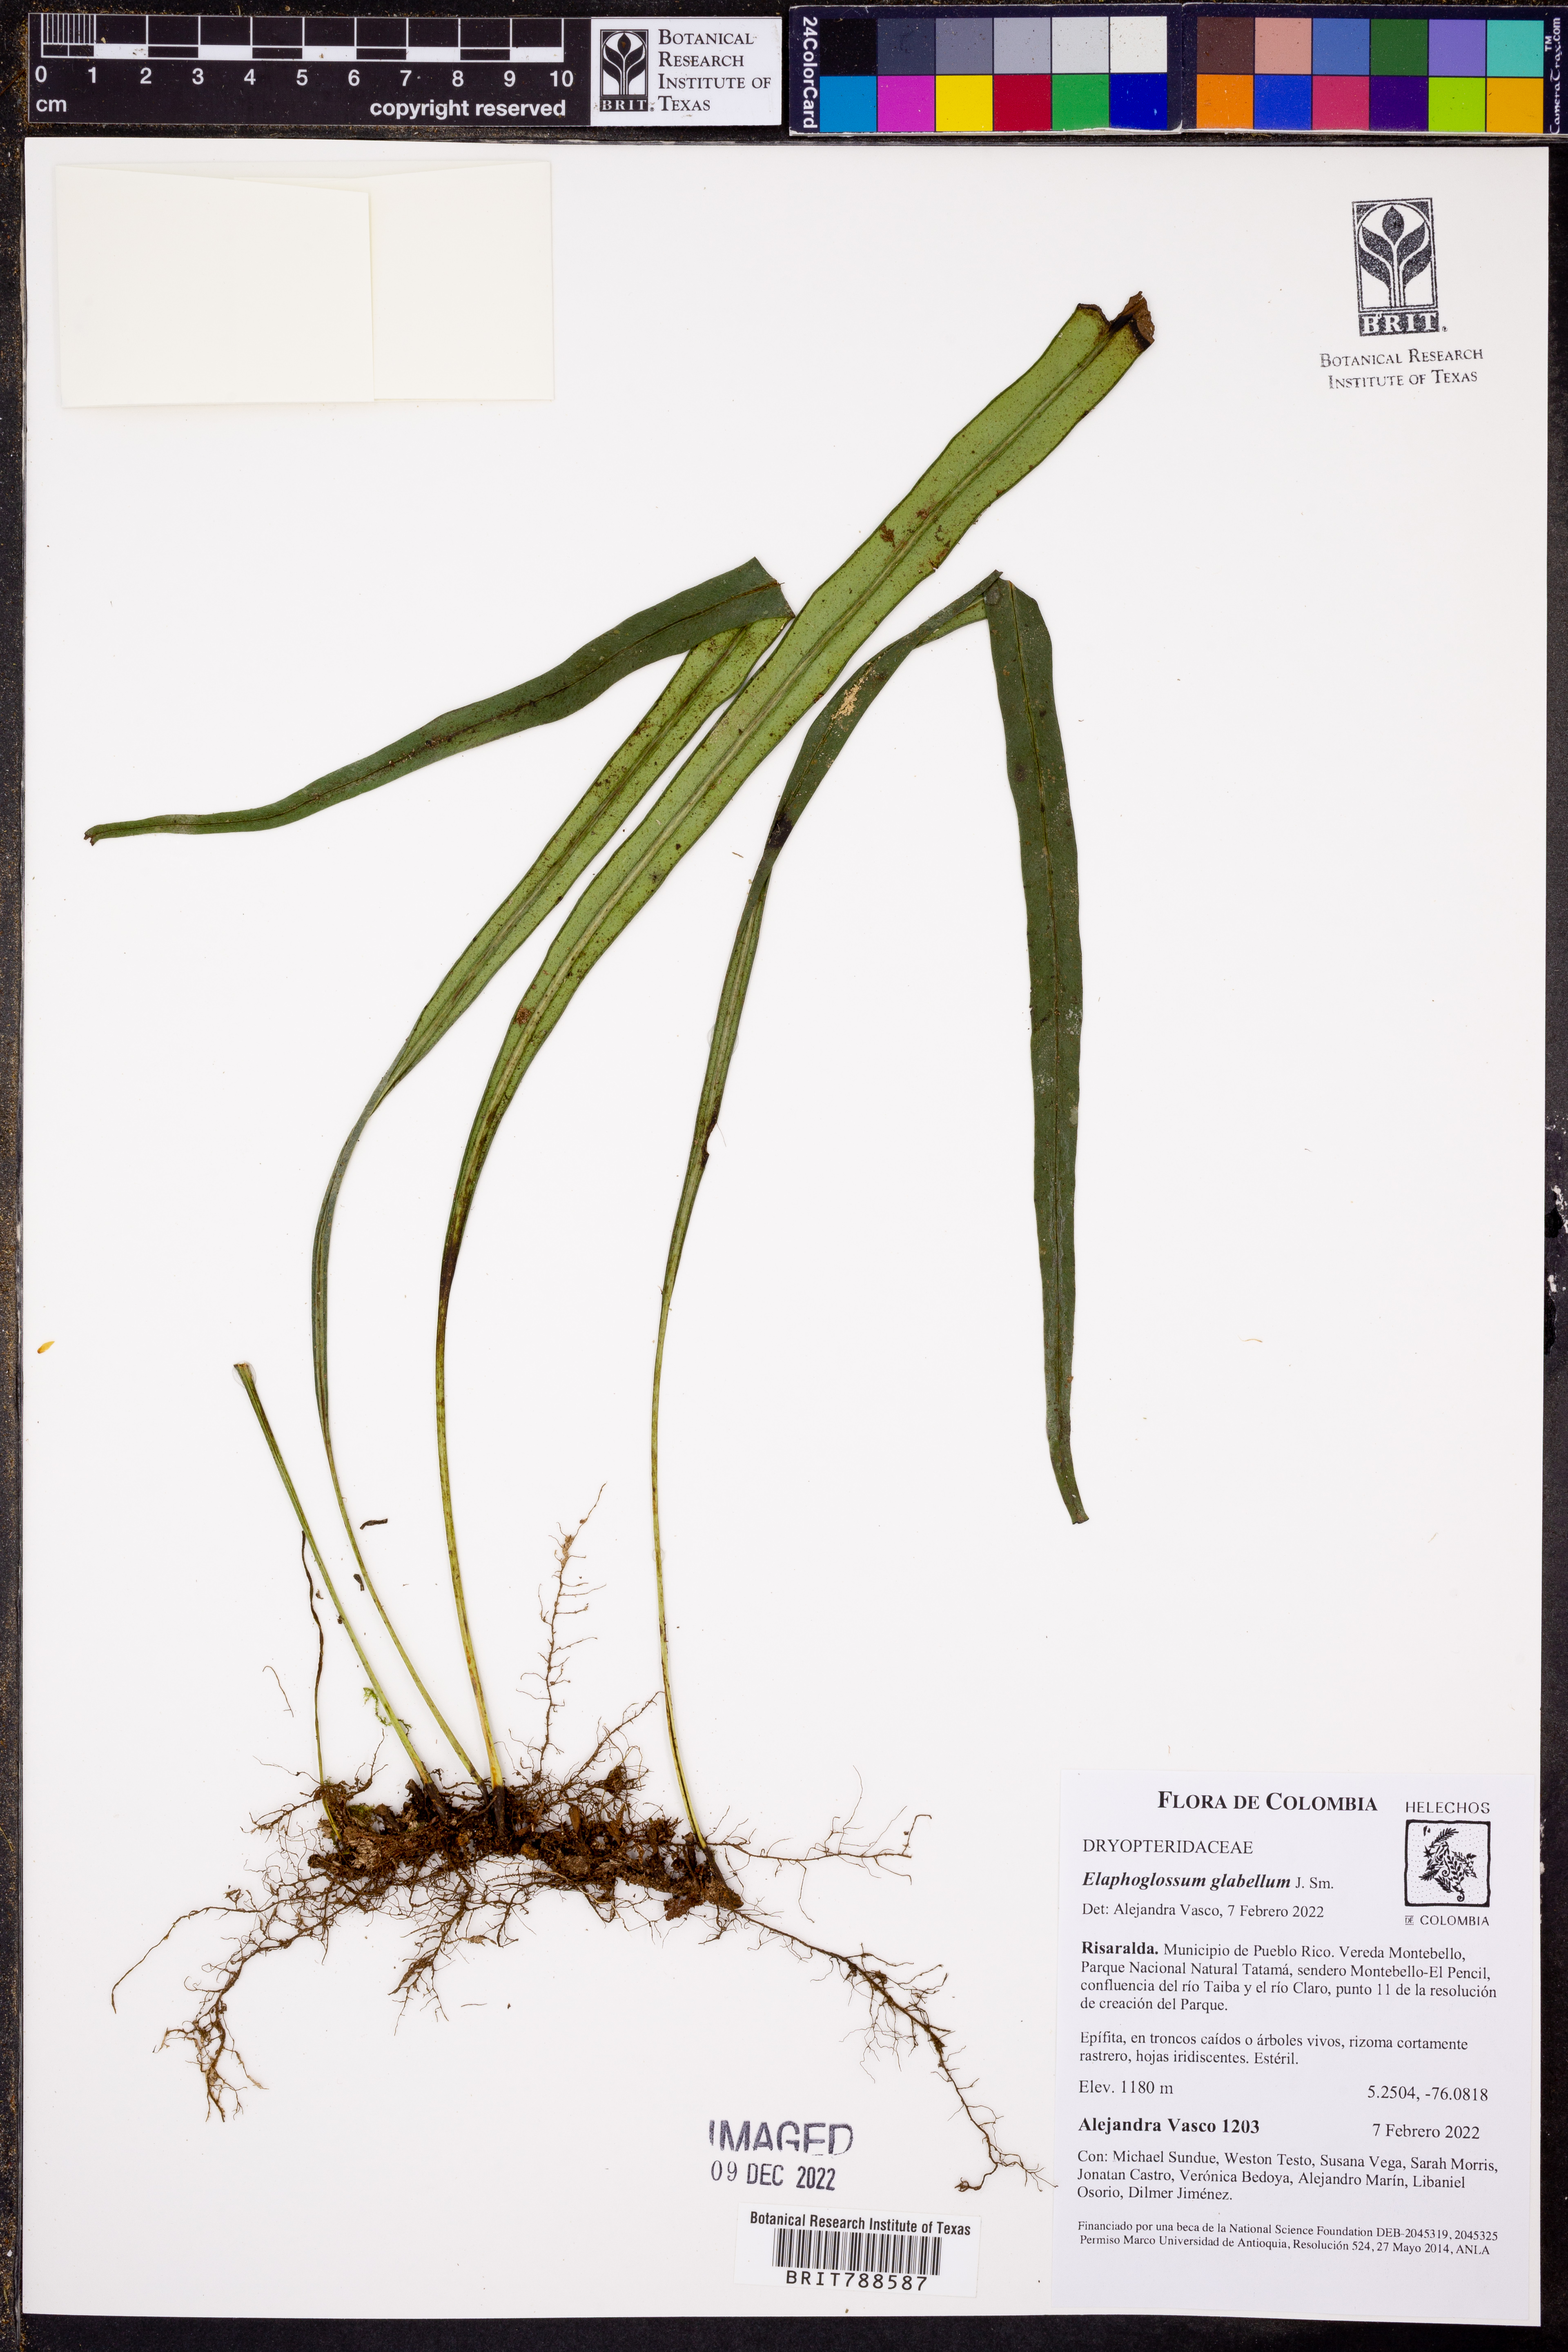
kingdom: Plantae
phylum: Tracheophyta
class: Polypodiopsida
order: Polypodiales
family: Dryopteridaceae
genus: Elaphoglossum
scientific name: Elaphoglossum glabellum
